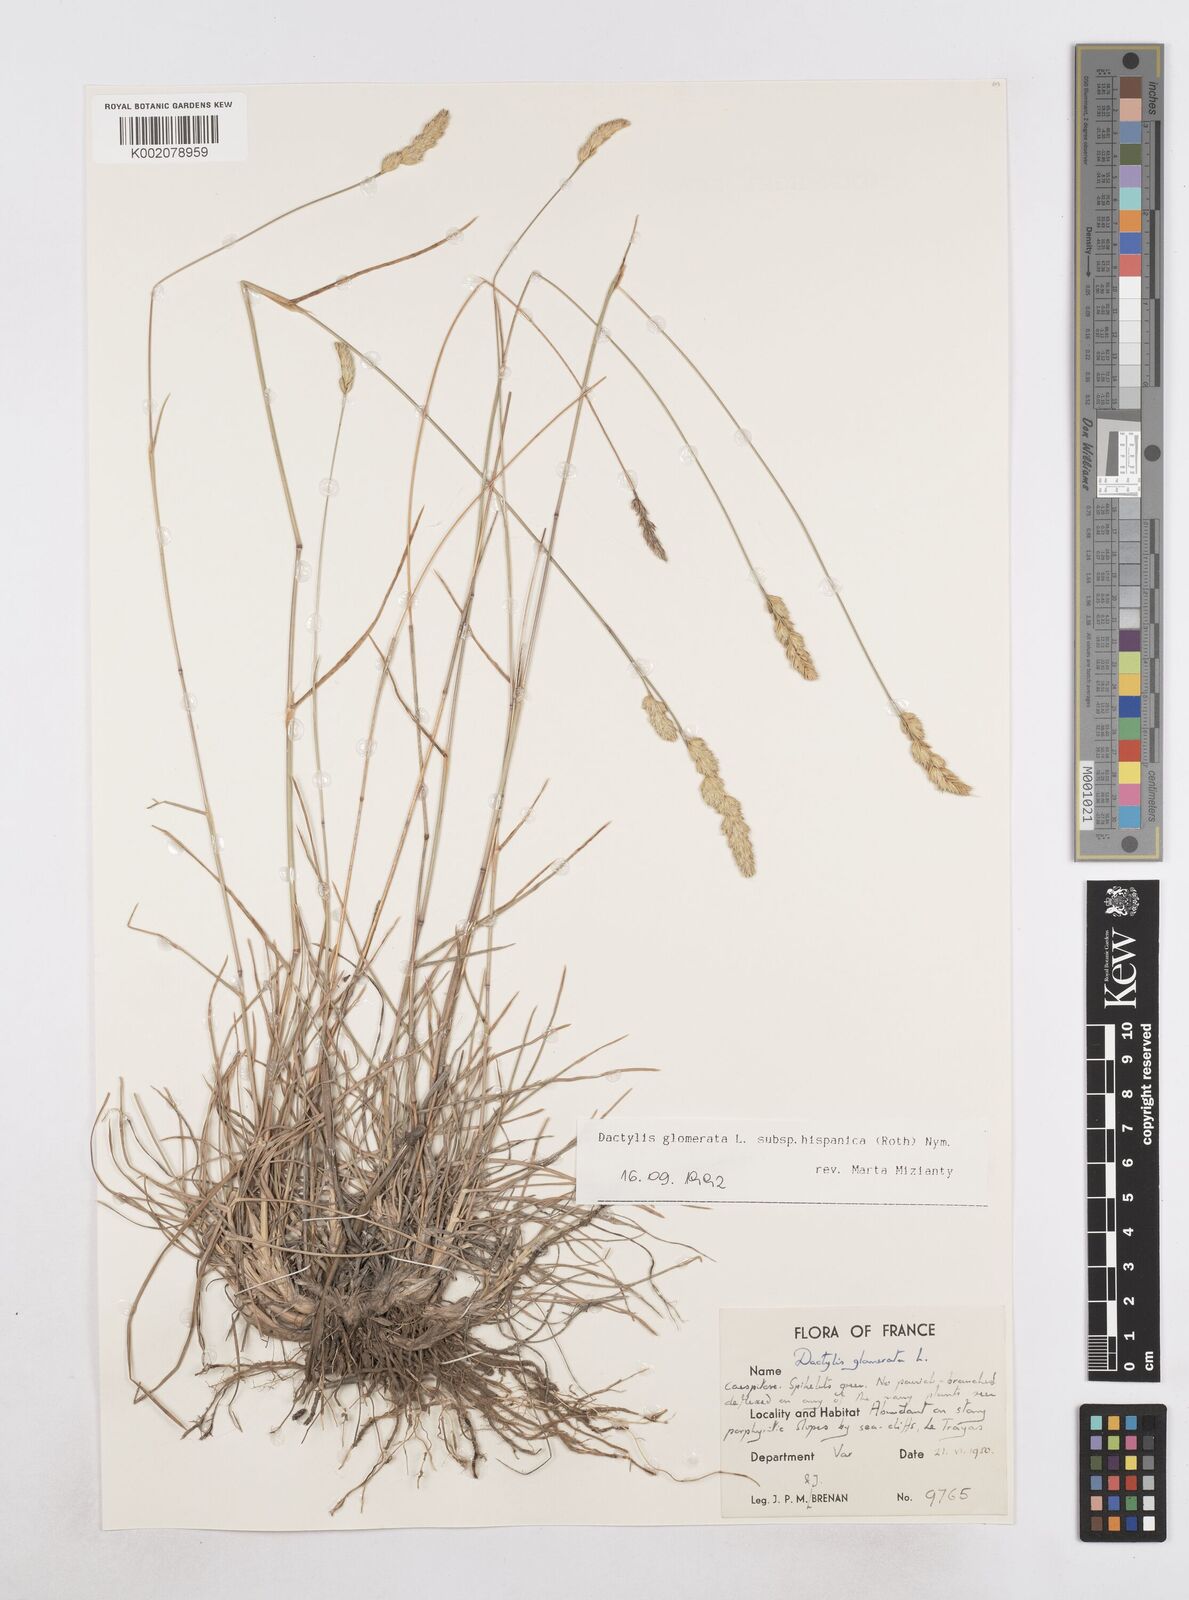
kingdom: Plantae
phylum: Tracheophyta
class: Liliopsida
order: Poales
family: Poaceae
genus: Dactylis
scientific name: Dactylis glomerata
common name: Orchardgrass
